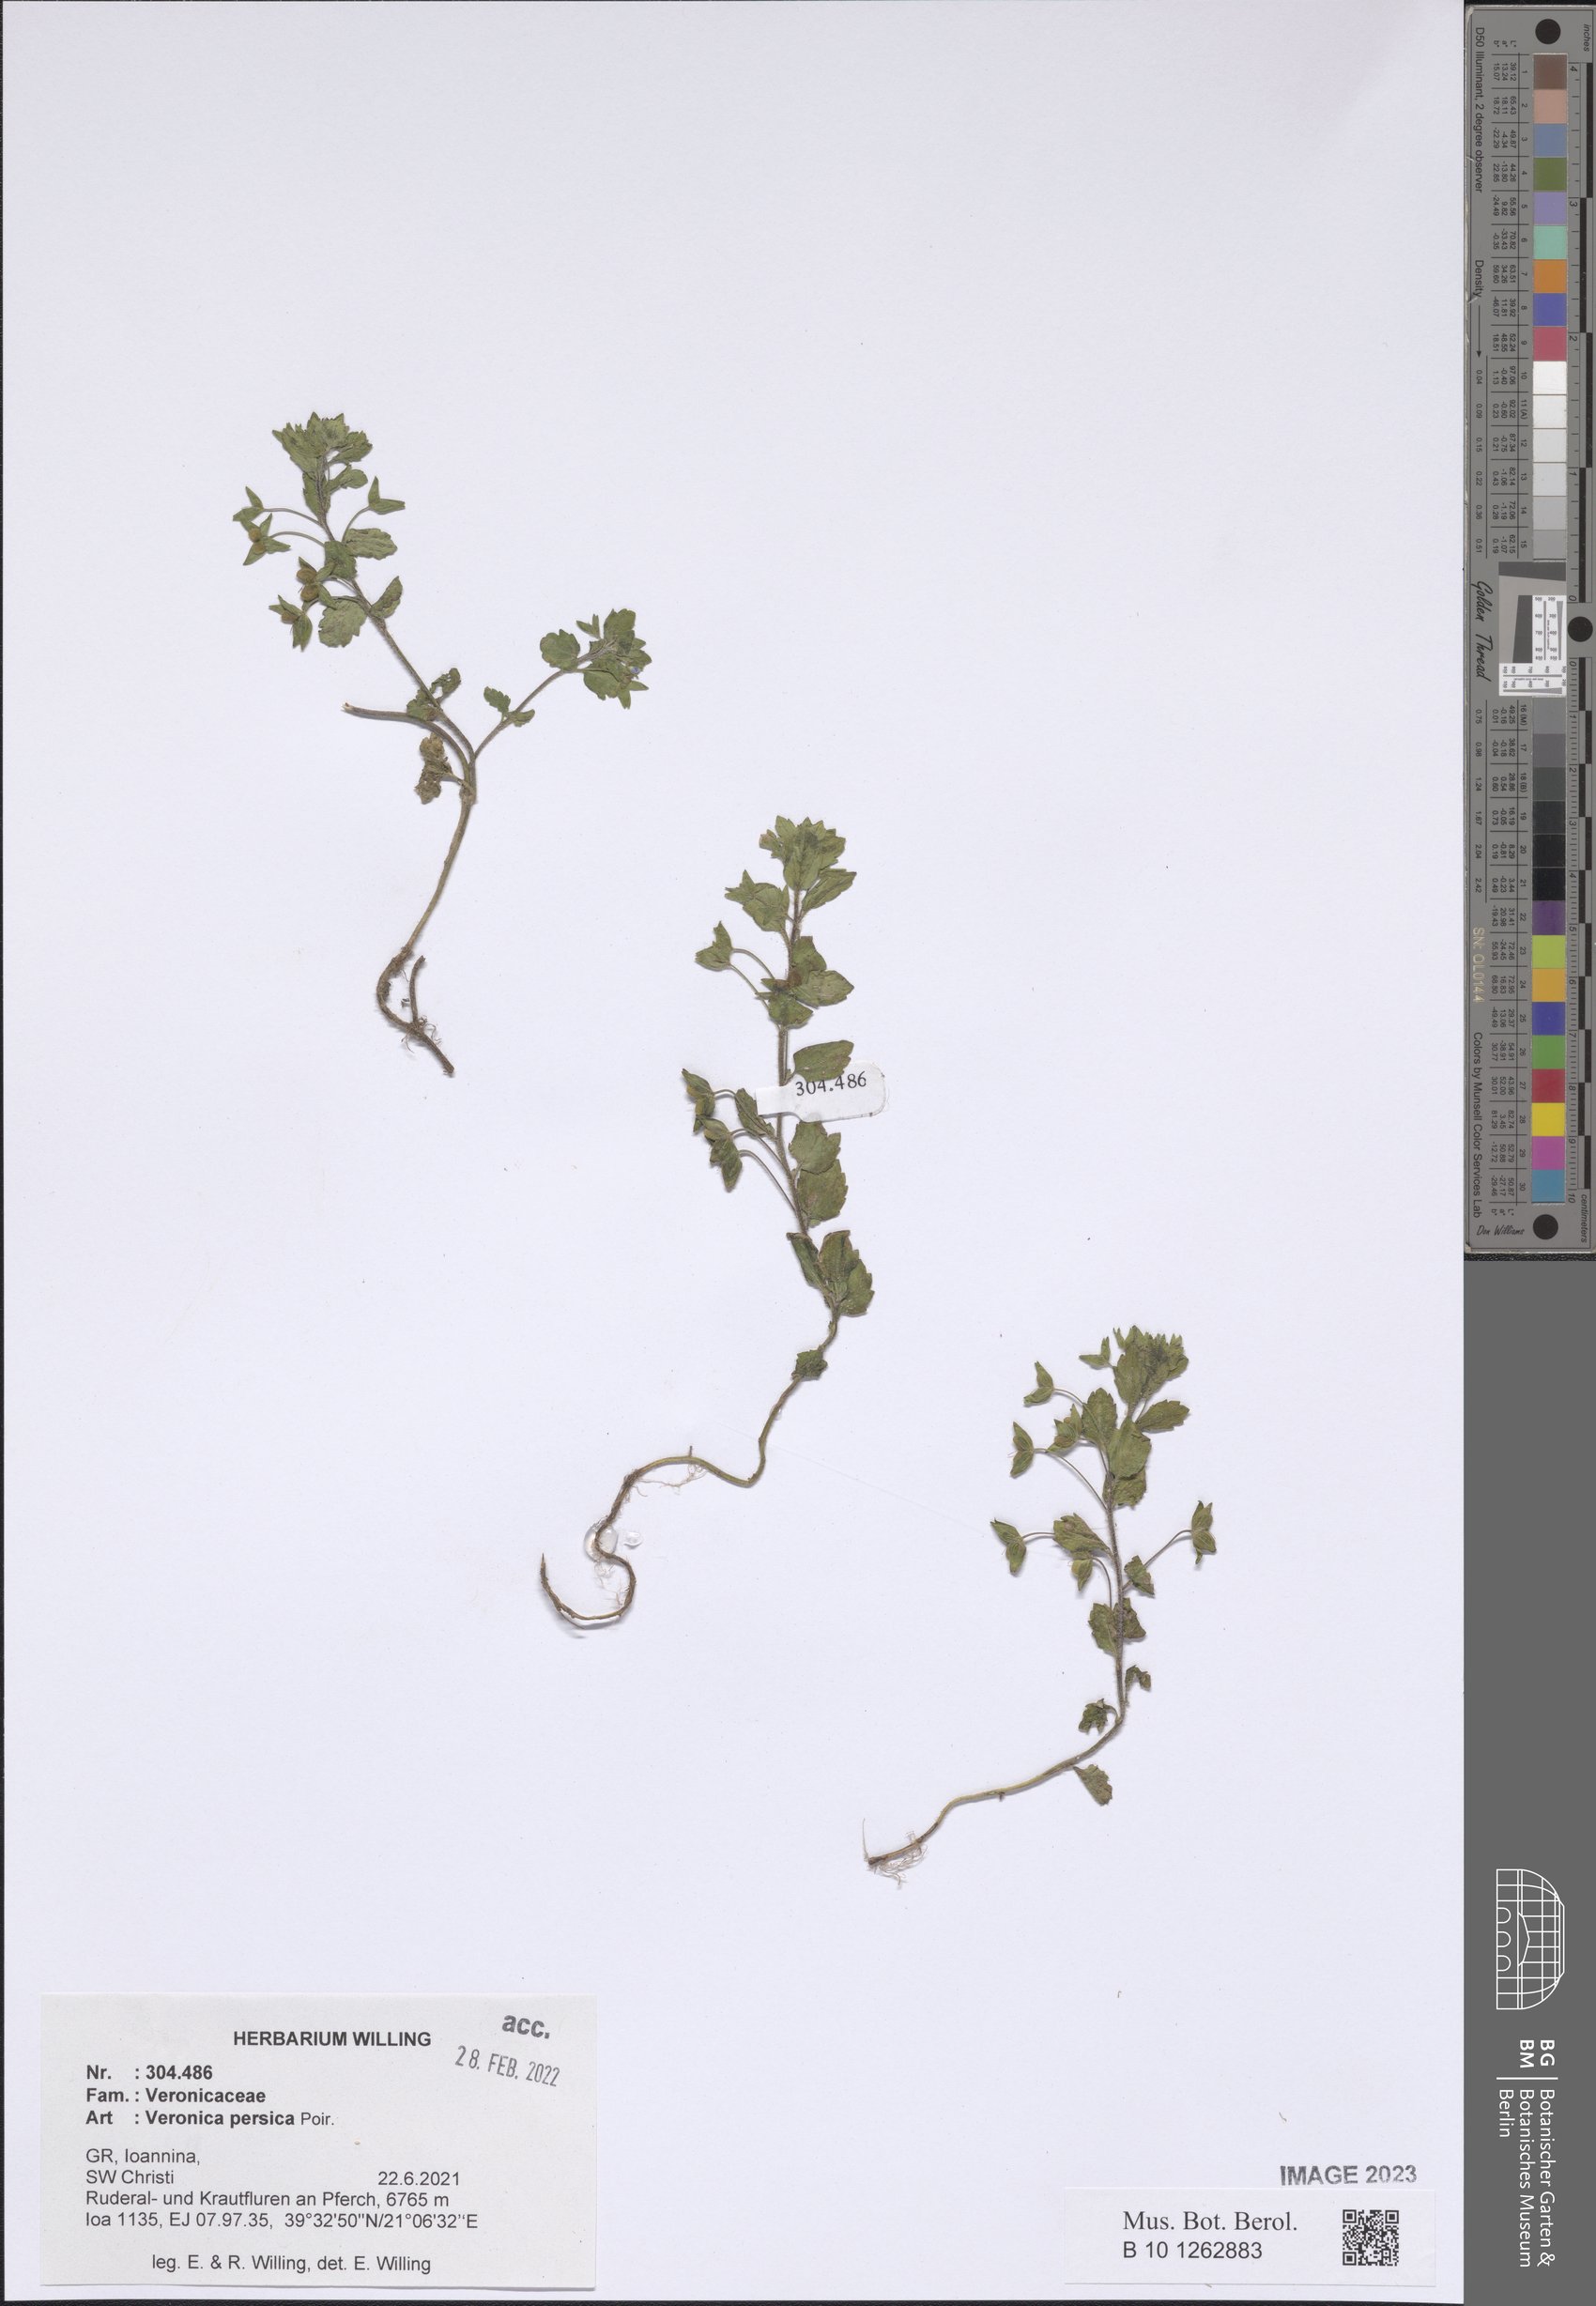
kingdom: Plantae
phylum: Tracheophyta
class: Magnoliopsida
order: Lamiales
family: Plantaginaceae
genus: Veronica
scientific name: Veronica persica
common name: Common field-speedwell
